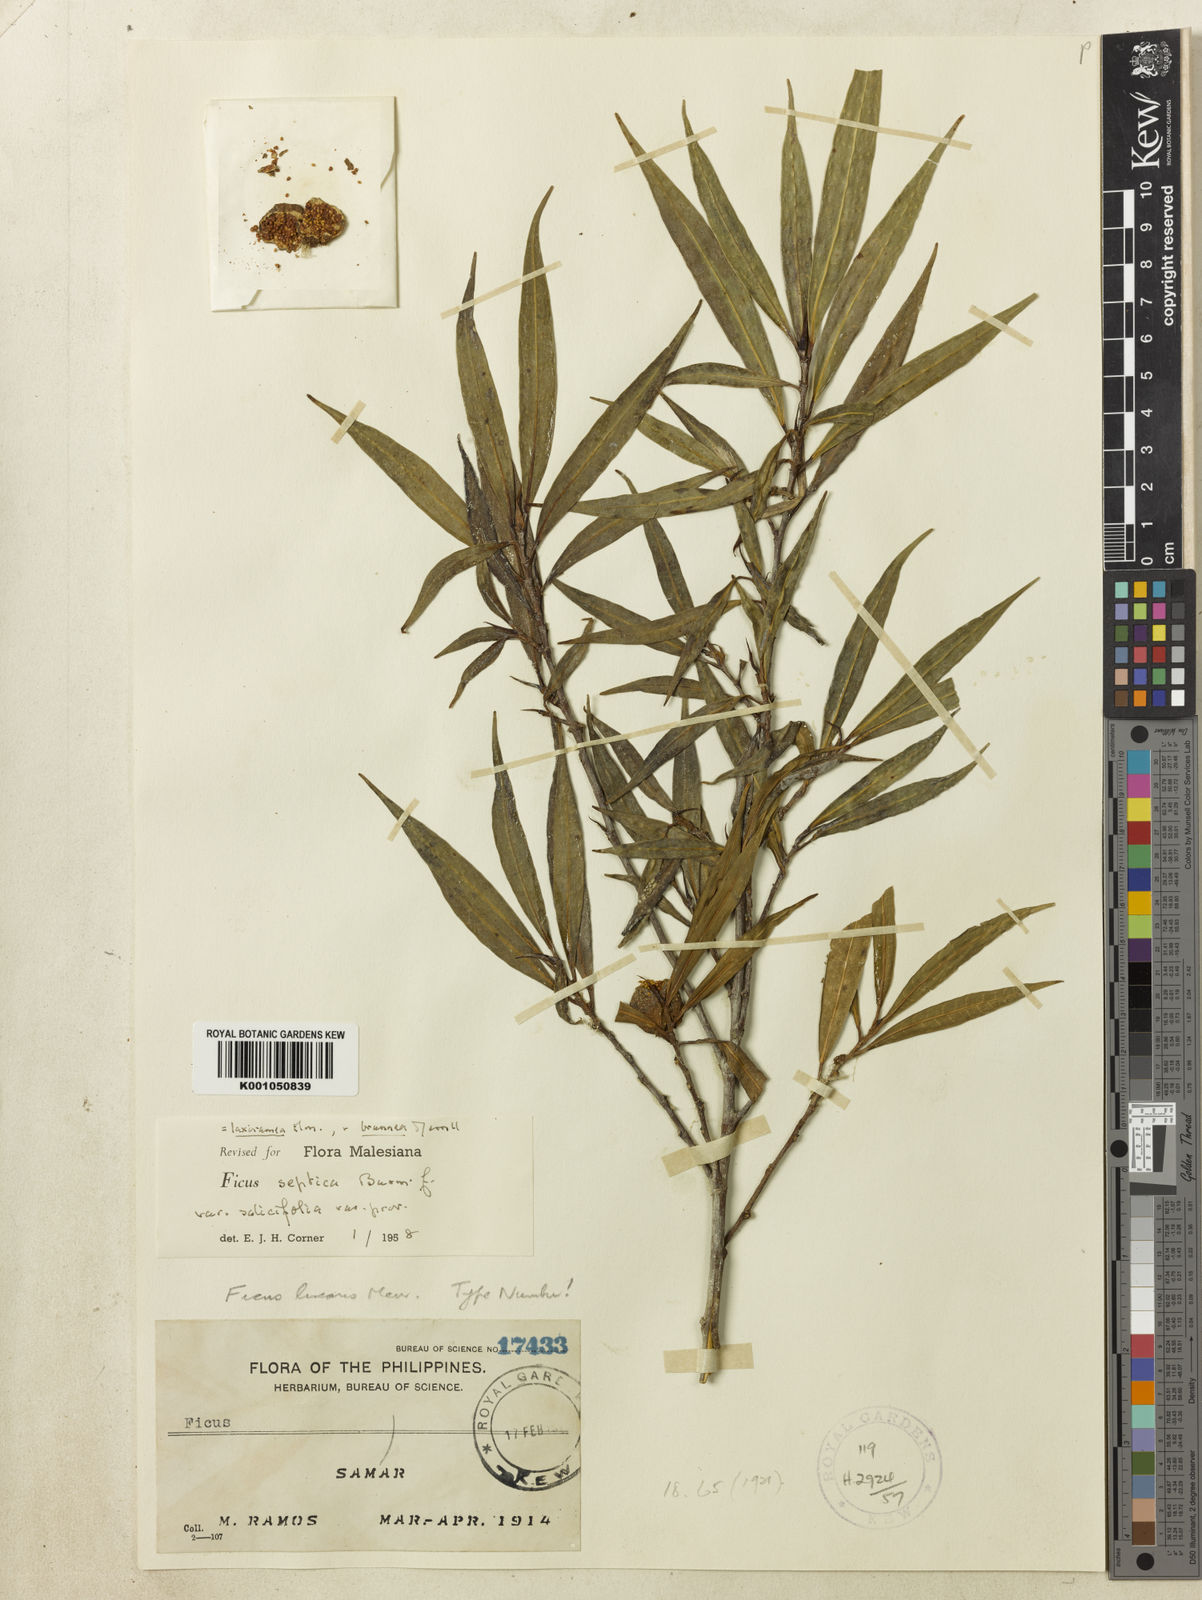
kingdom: Plantae
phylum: Tracheophyta
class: Magnoliopsida
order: Rosales
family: Moraceae
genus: Ficus
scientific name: Ficus septica
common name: Septic fig
